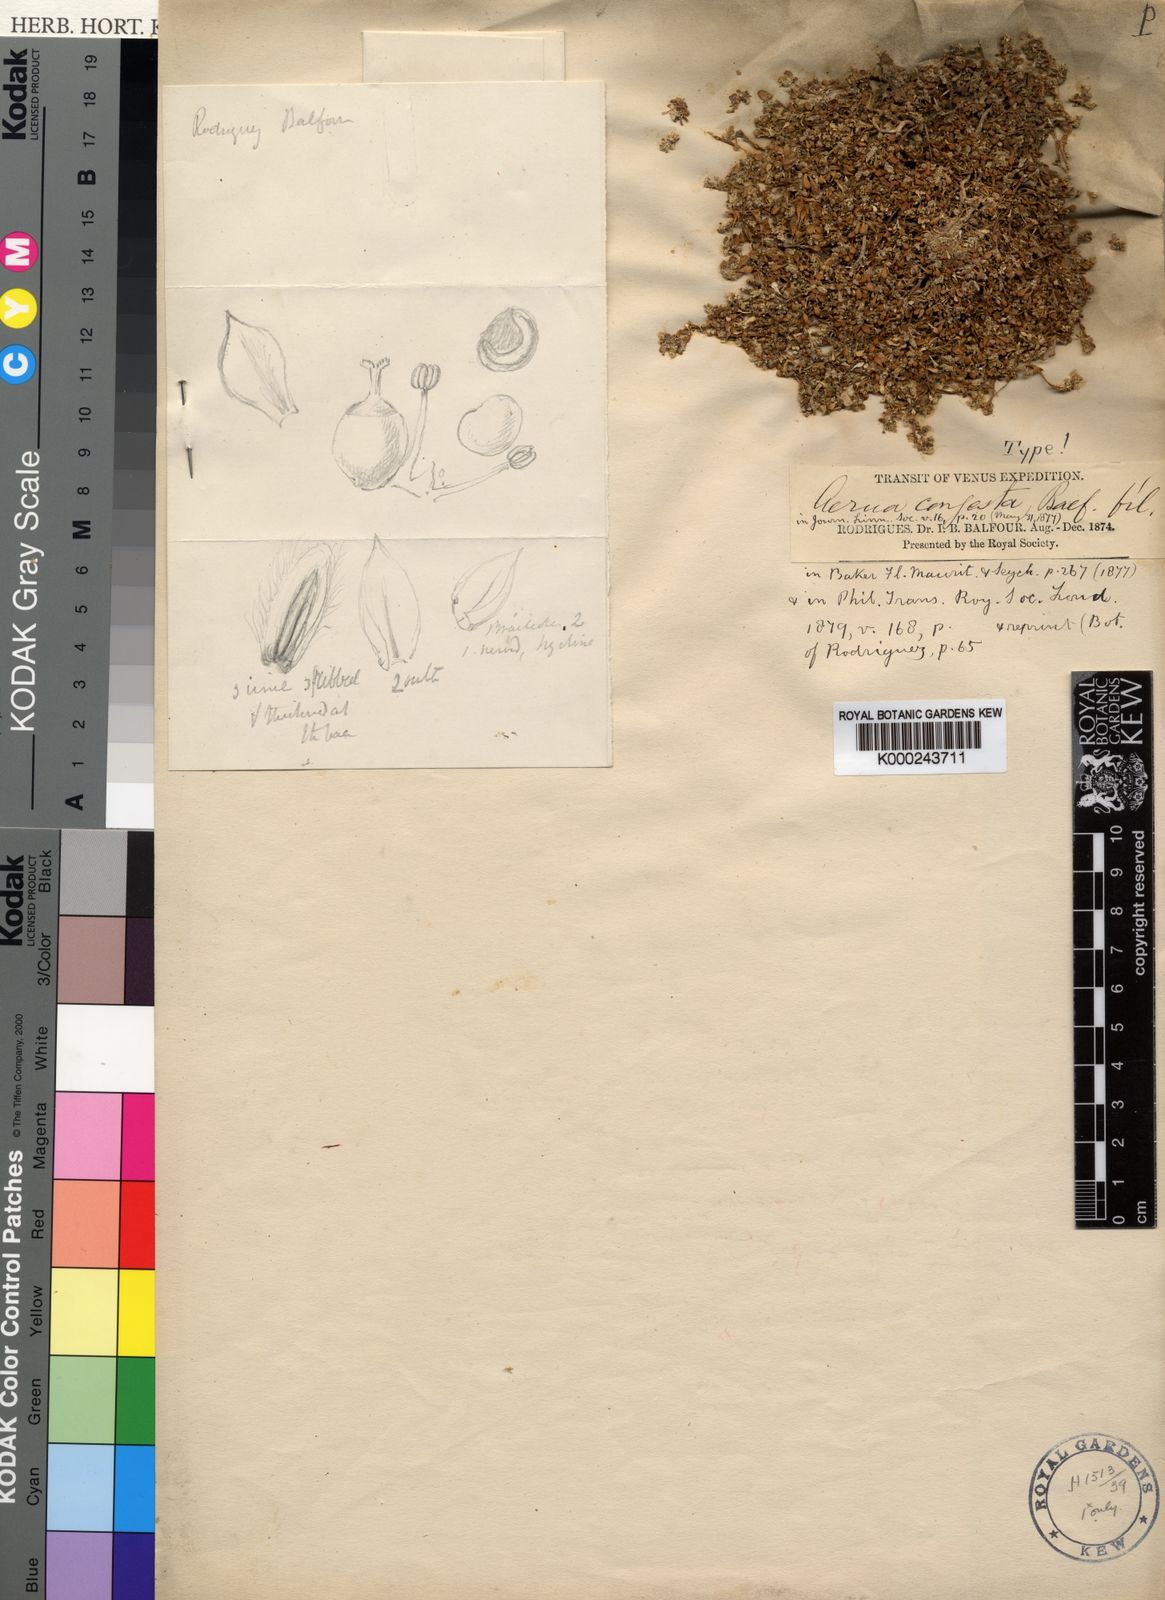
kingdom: Plantae
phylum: Tracheophyta
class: Magnoliopsida
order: Caryophyllales
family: Amaranthaceae
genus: Aerva
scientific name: Aerva
